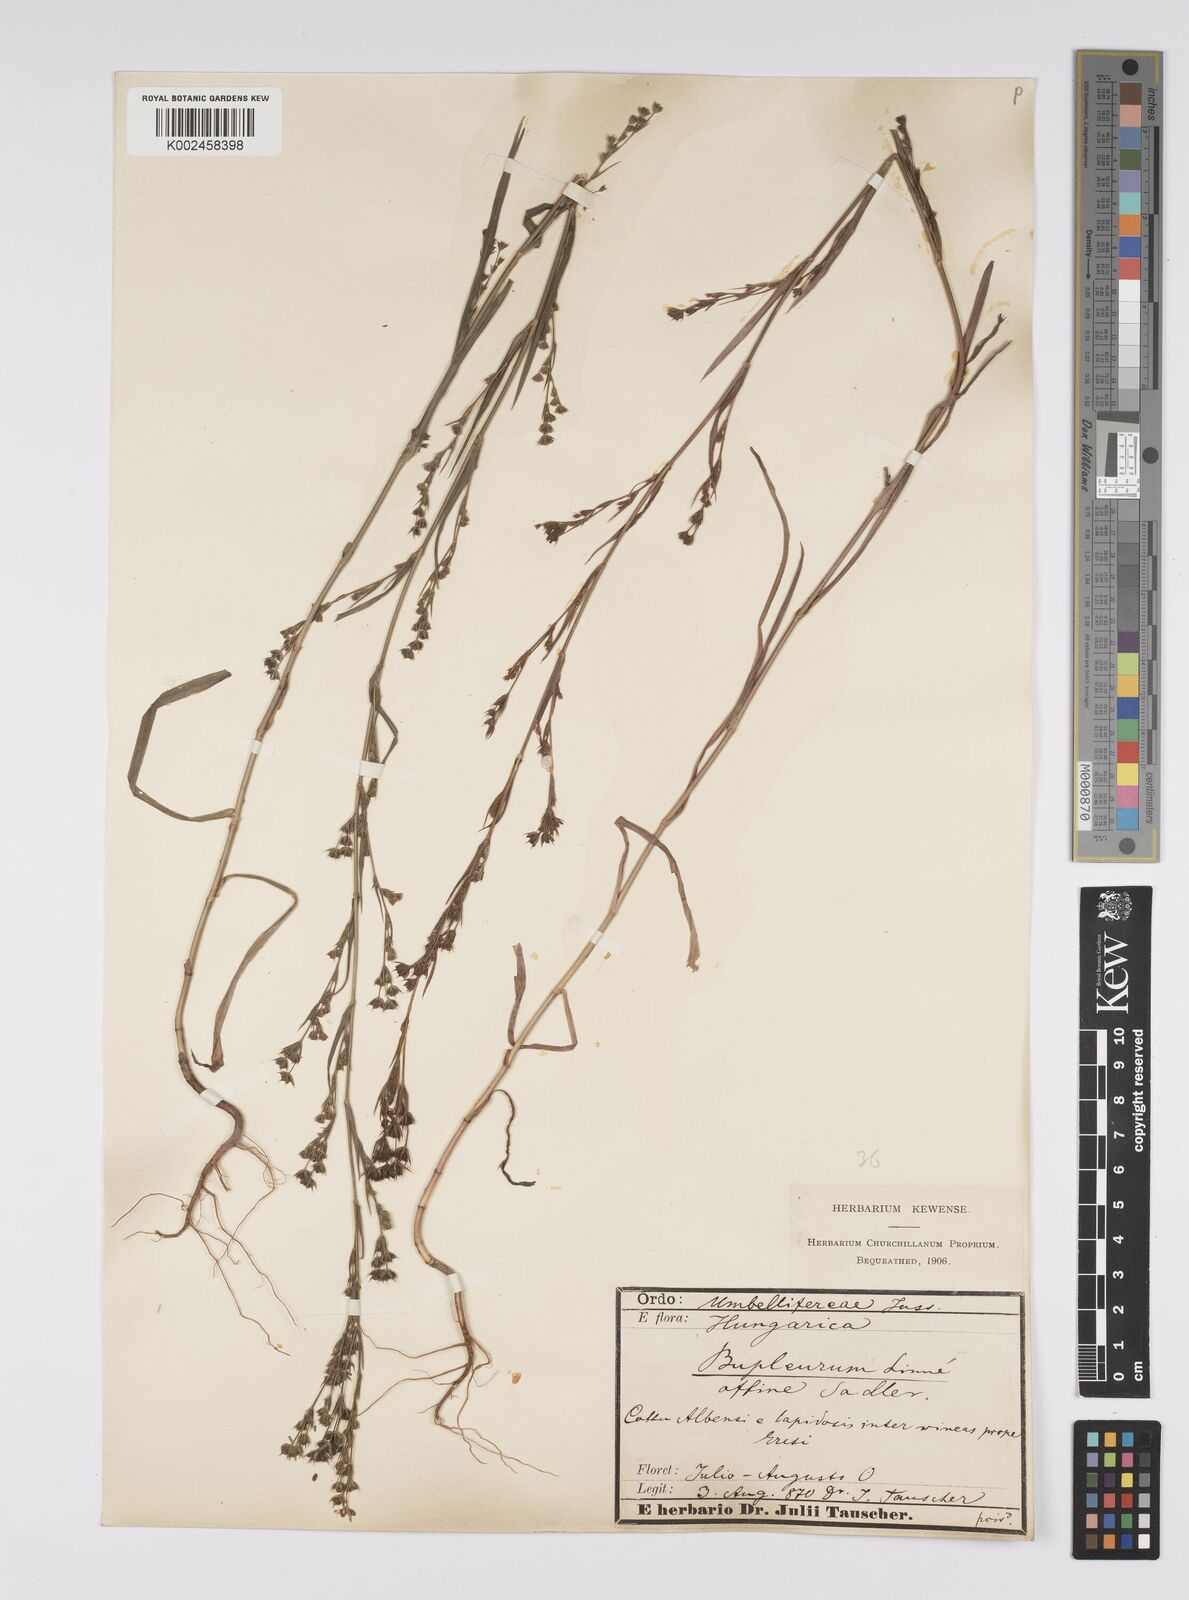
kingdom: Plantae
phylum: Tracheophyta
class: Magnoliopsida
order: Apiales
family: Apiaceae
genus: Bupleurum
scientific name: Bupleurum affine
